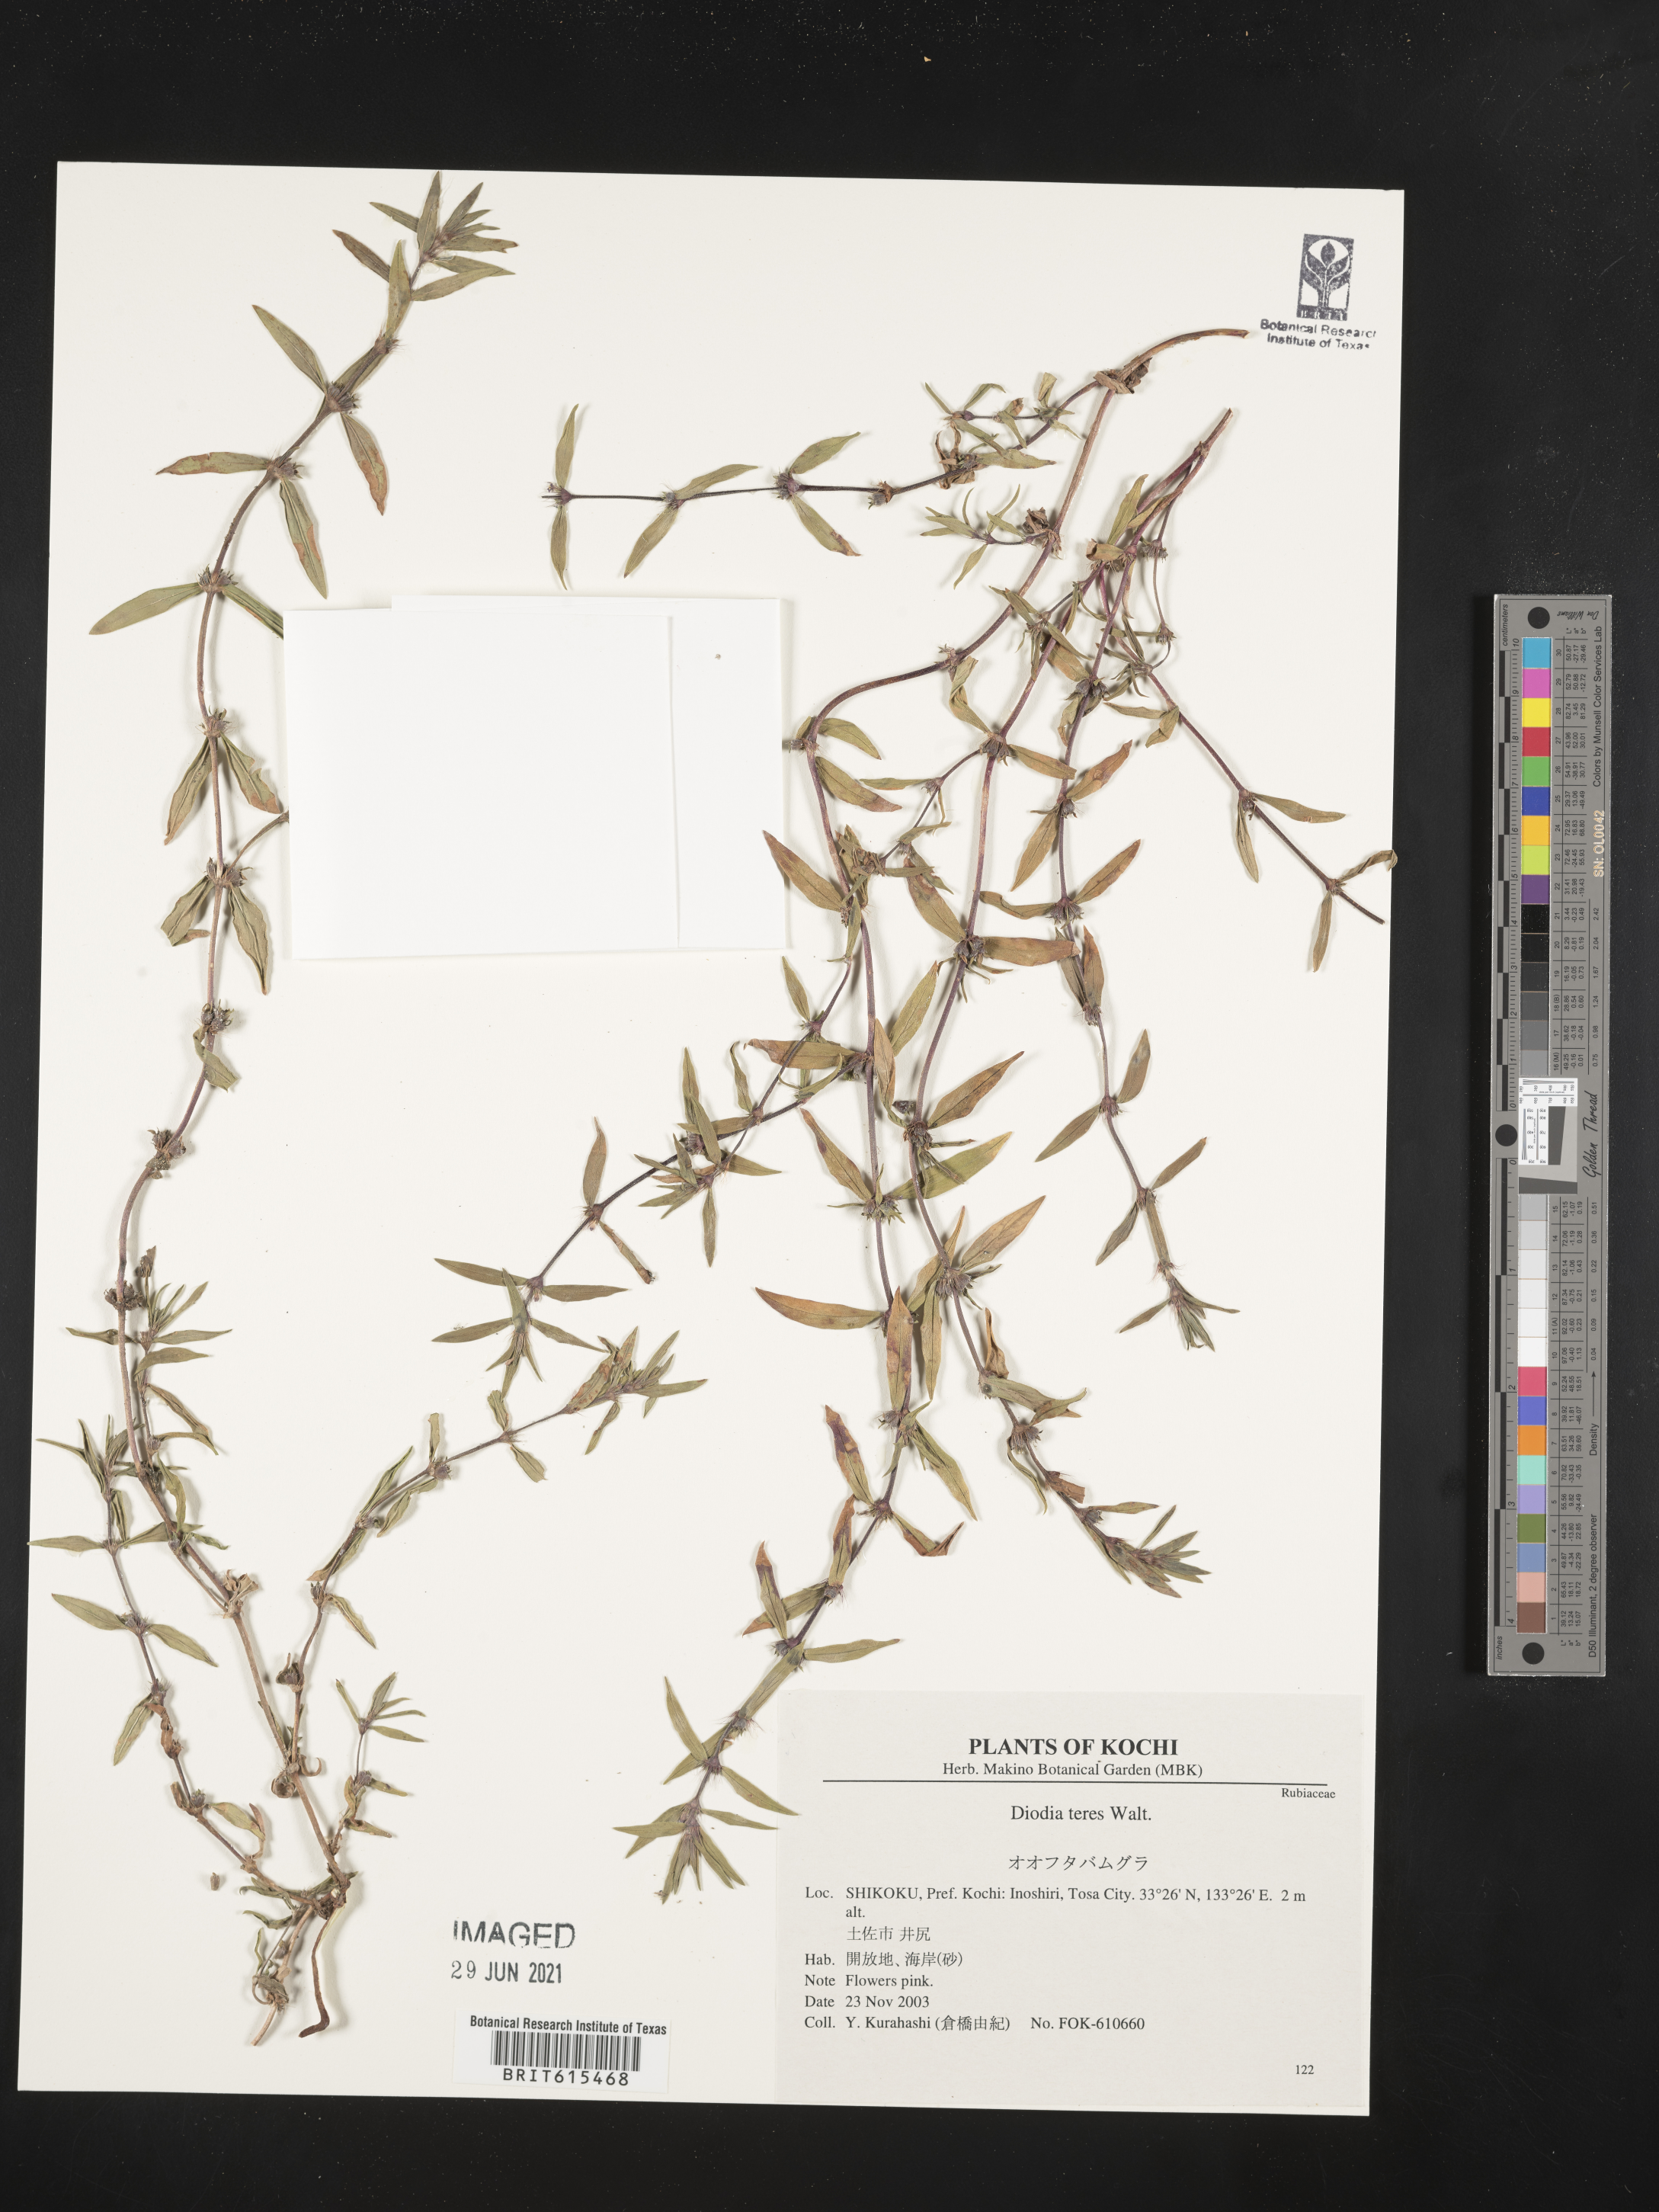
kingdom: Plantae
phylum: Tracheophyta
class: Magnoliopsida
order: Gentianales
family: Rubiaceae
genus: Hexasepalum
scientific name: Hexasepalum teres
